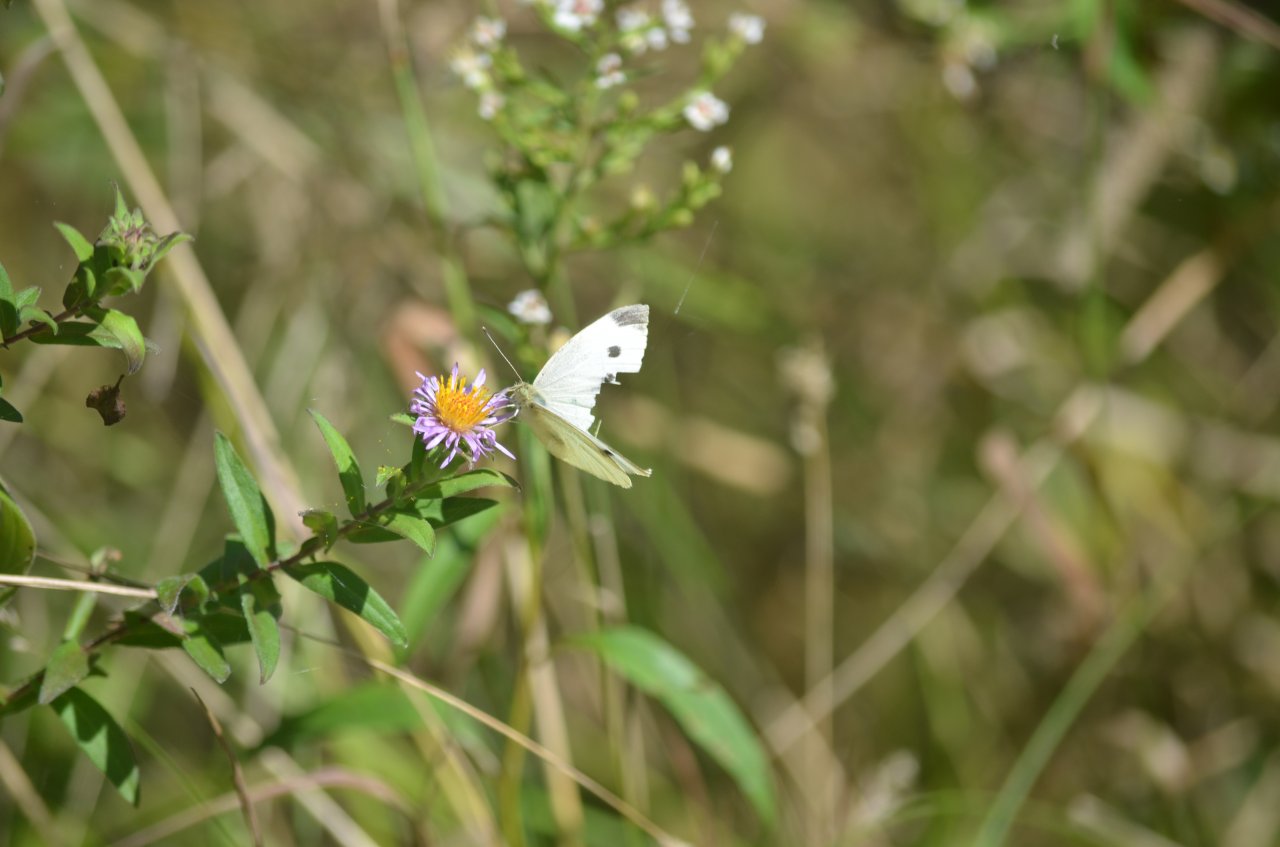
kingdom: Animalia
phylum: Arthropoda
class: Insecta
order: Lepidoptera
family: Pieridae
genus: Pieris
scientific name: Pieris rapae
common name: Cabbage White
